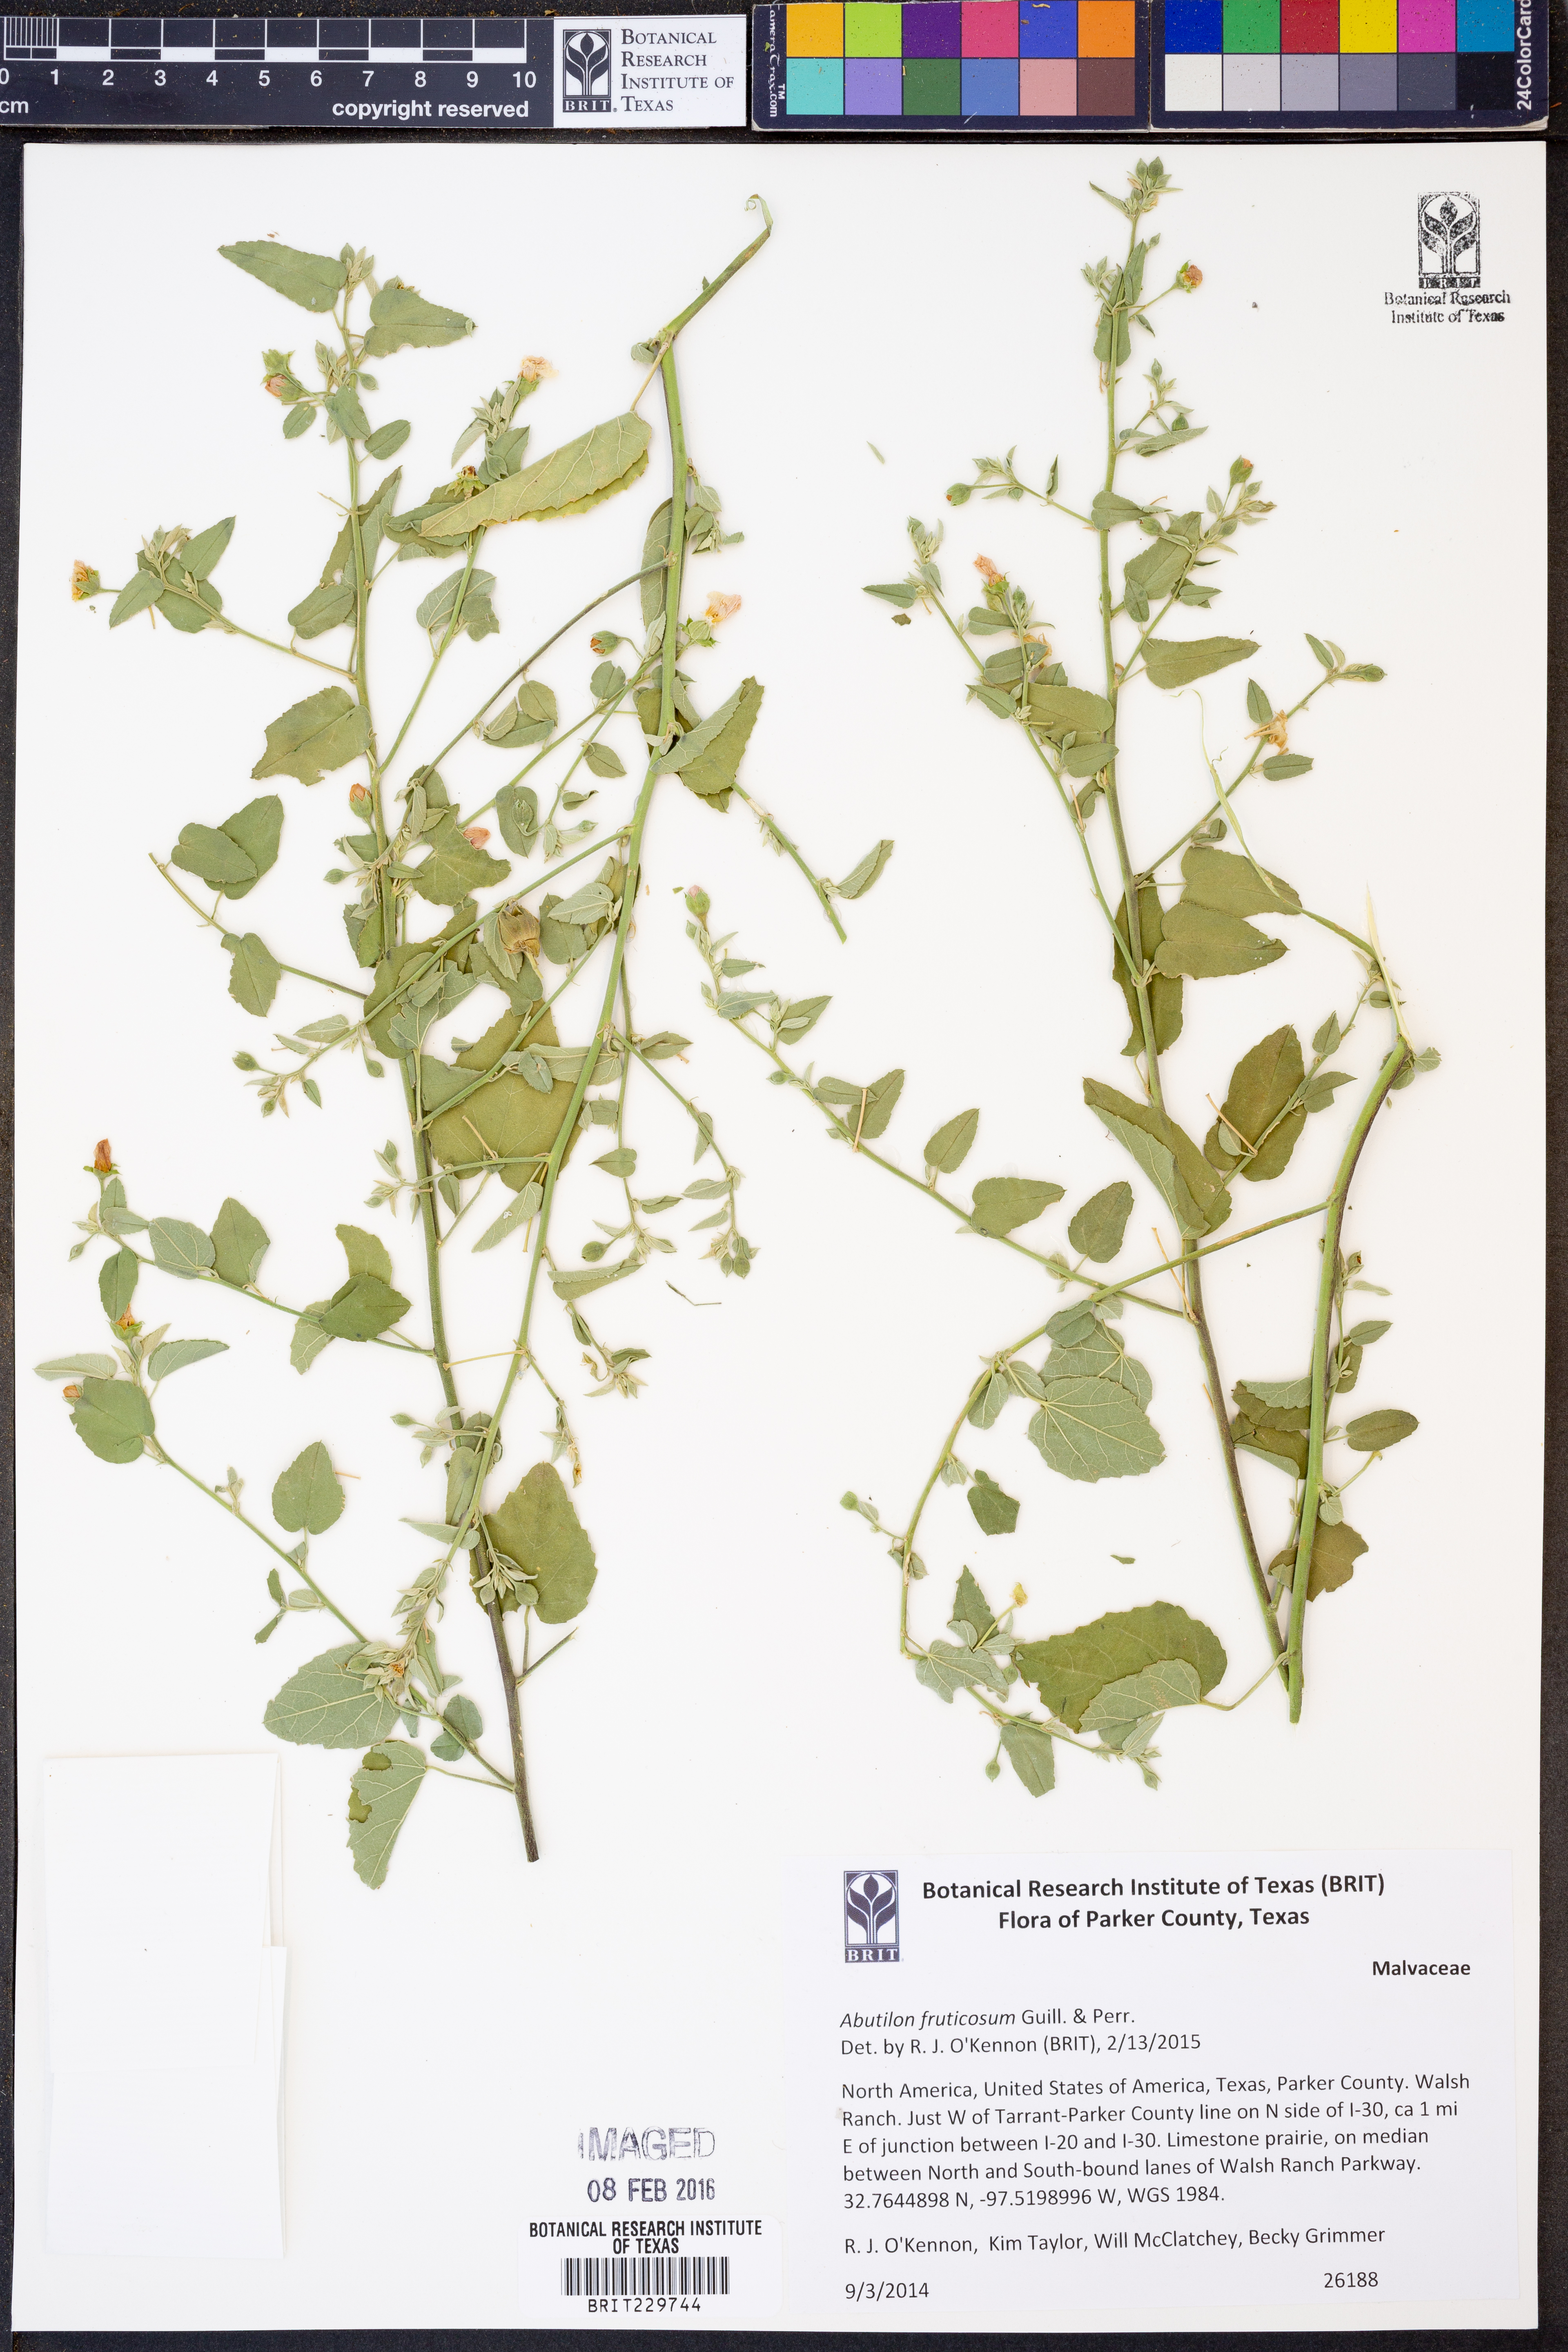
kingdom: Plantae
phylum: Tracheophyta
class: Magnoliopsida
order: Malvales
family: Malvaceae
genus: Abutilon
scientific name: Abutilon fruticosum
